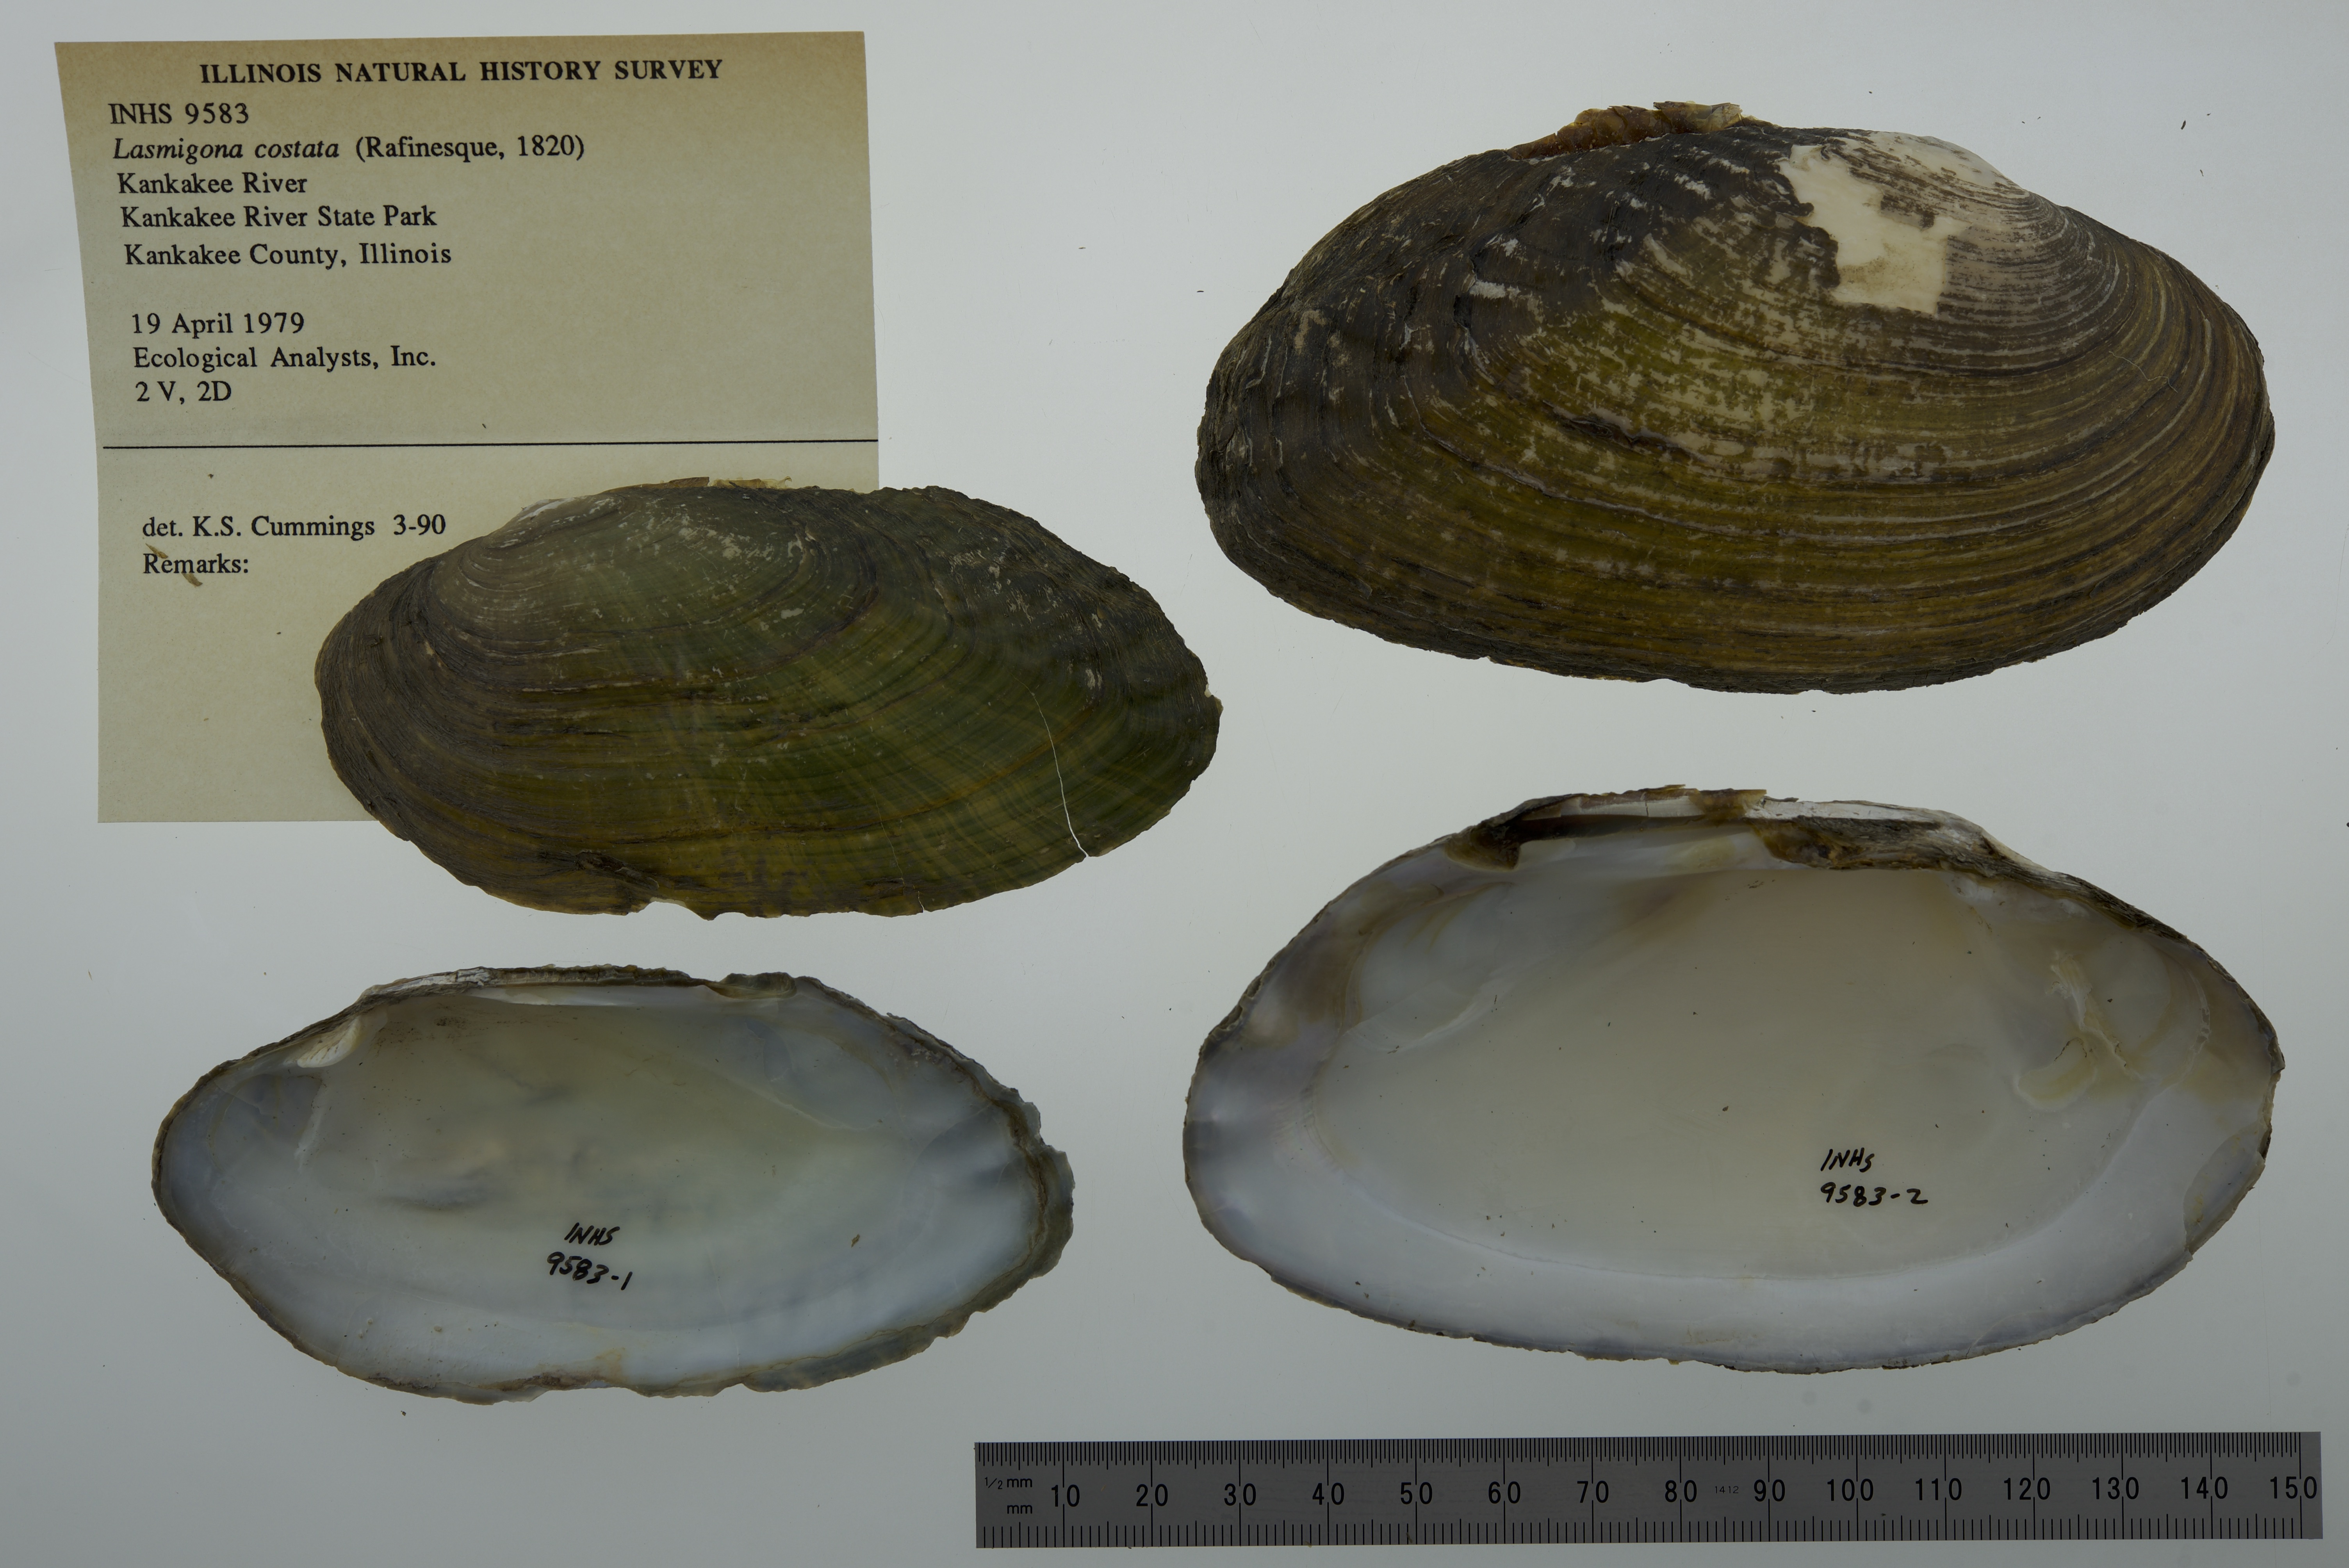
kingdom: Animalia
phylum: Mollusca
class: Bivalvia
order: Unionida
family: Unionidae
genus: Lasmigona
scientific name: Lasmigona costata
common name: Flutedshell
